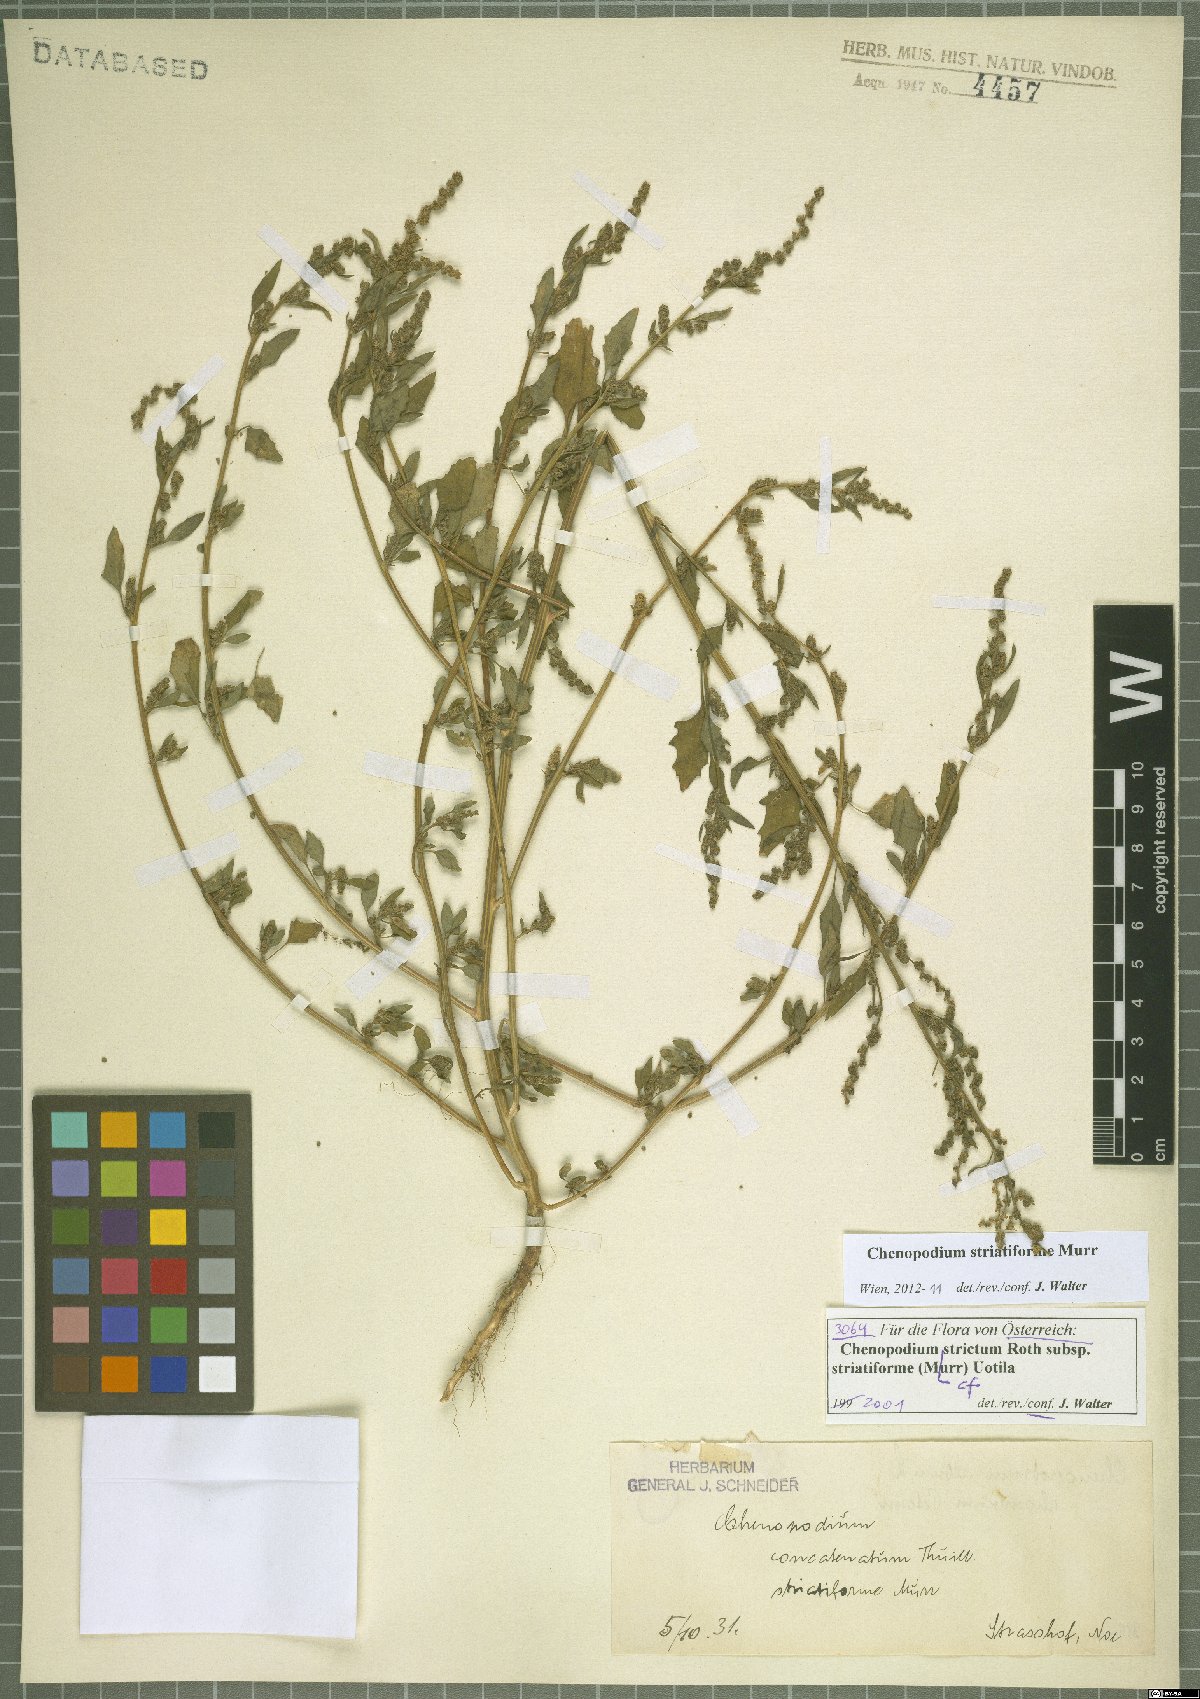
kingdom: Plantae
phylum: Tracheophyta
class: Magnoliopsida
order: Caryophyllales
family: Amaranthaceae
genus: Chenopodium
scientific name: Chenopodium striatiforme
